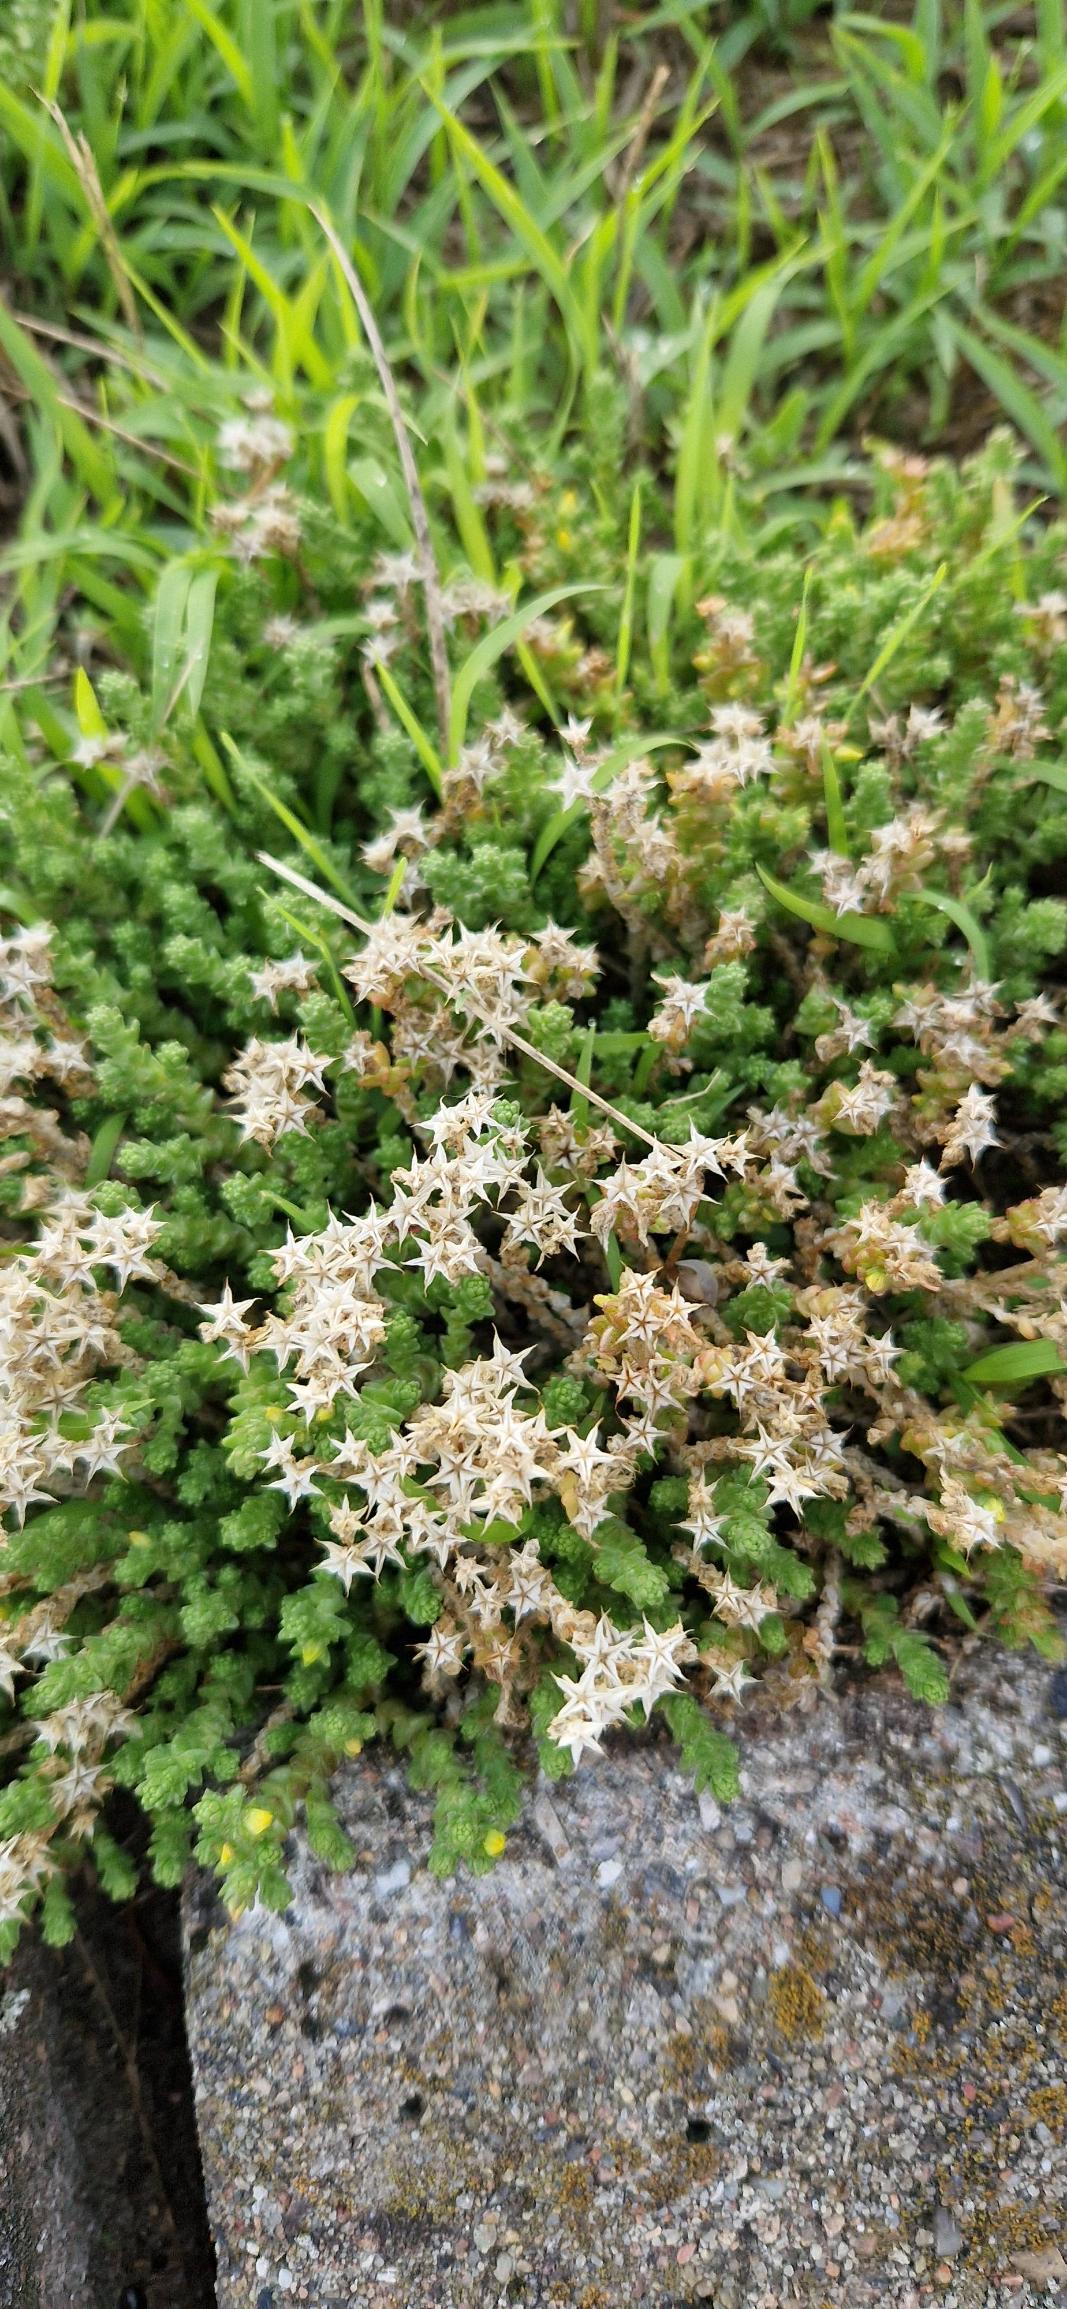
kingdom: Plantae
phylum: Tracheophyta
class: Magnoliopsida
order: Saxifragales
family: Crassulaceae
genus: Sedum
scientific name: Sedum acre
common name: Bidende stenurt
